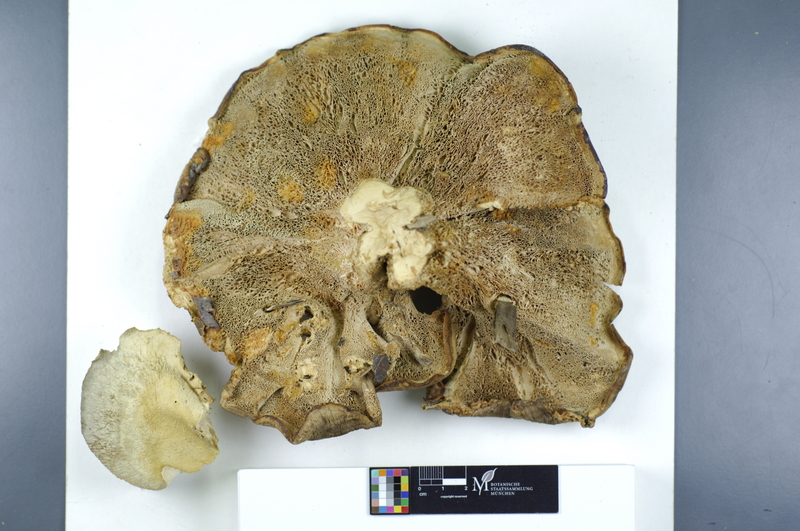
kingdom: Plantae
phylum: Tracheophyta
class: Pinopsida
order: Pinales
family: Pinaceae
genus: Abies
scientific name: Abies
